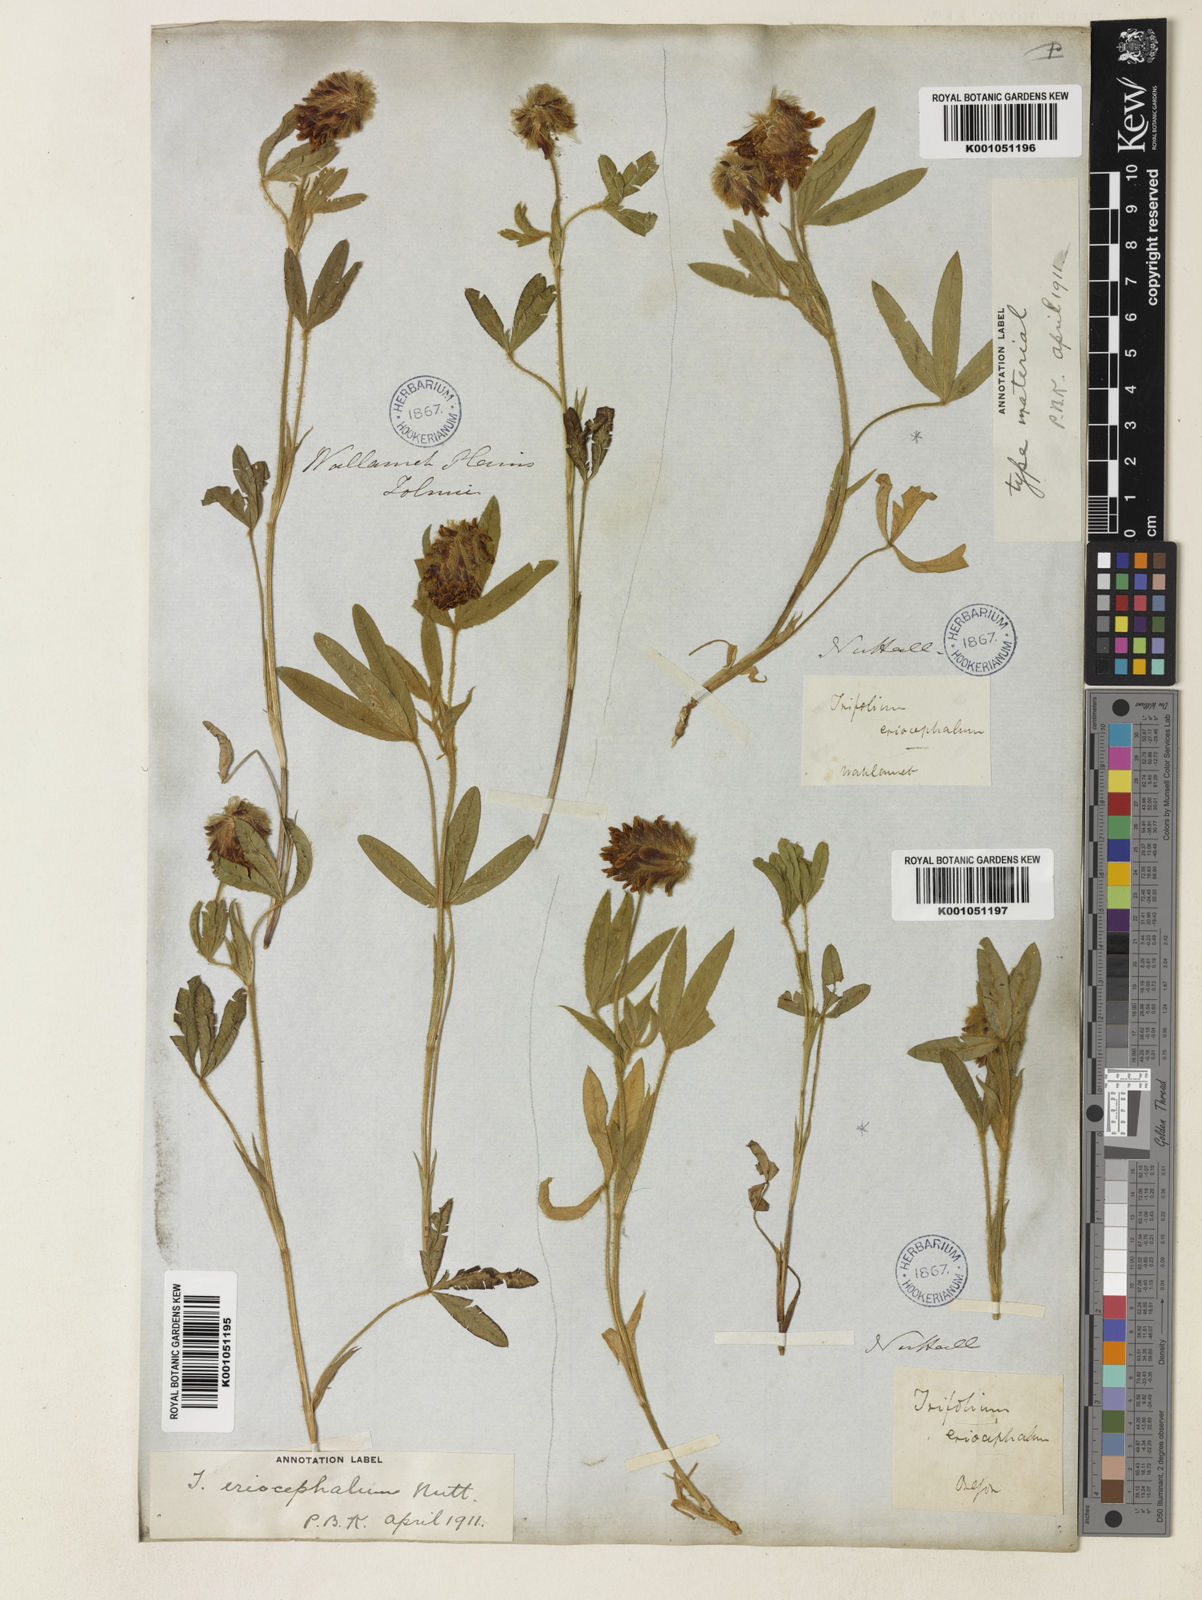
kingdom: Plantae
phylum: Tracheophyta
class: Magnoliopsida
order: Fabales
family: Fabaceae
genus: Trifolium
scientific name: Trifolium eriocephalum
